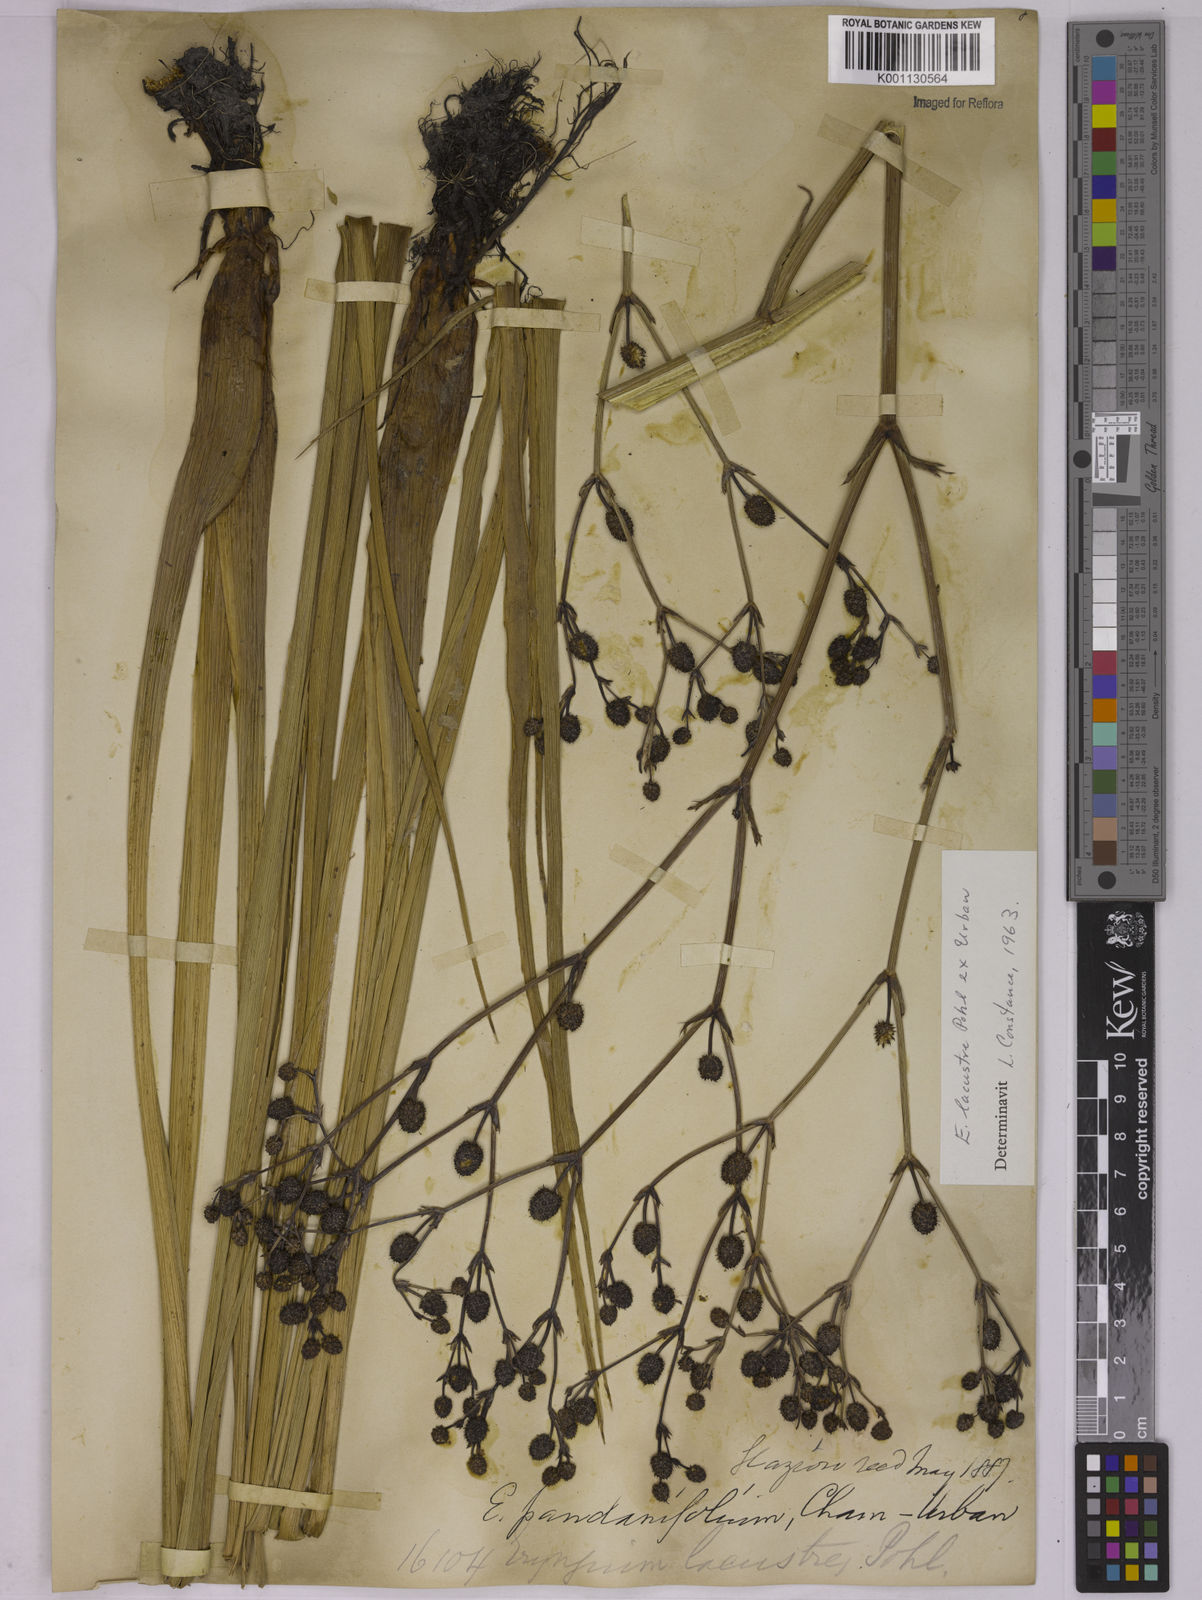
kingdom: Plantae
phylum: Tracheophyta
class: Magnoliopsida
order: Apiales
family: Apiaceae
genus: Eryngium
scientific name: Eryngium lacustre
